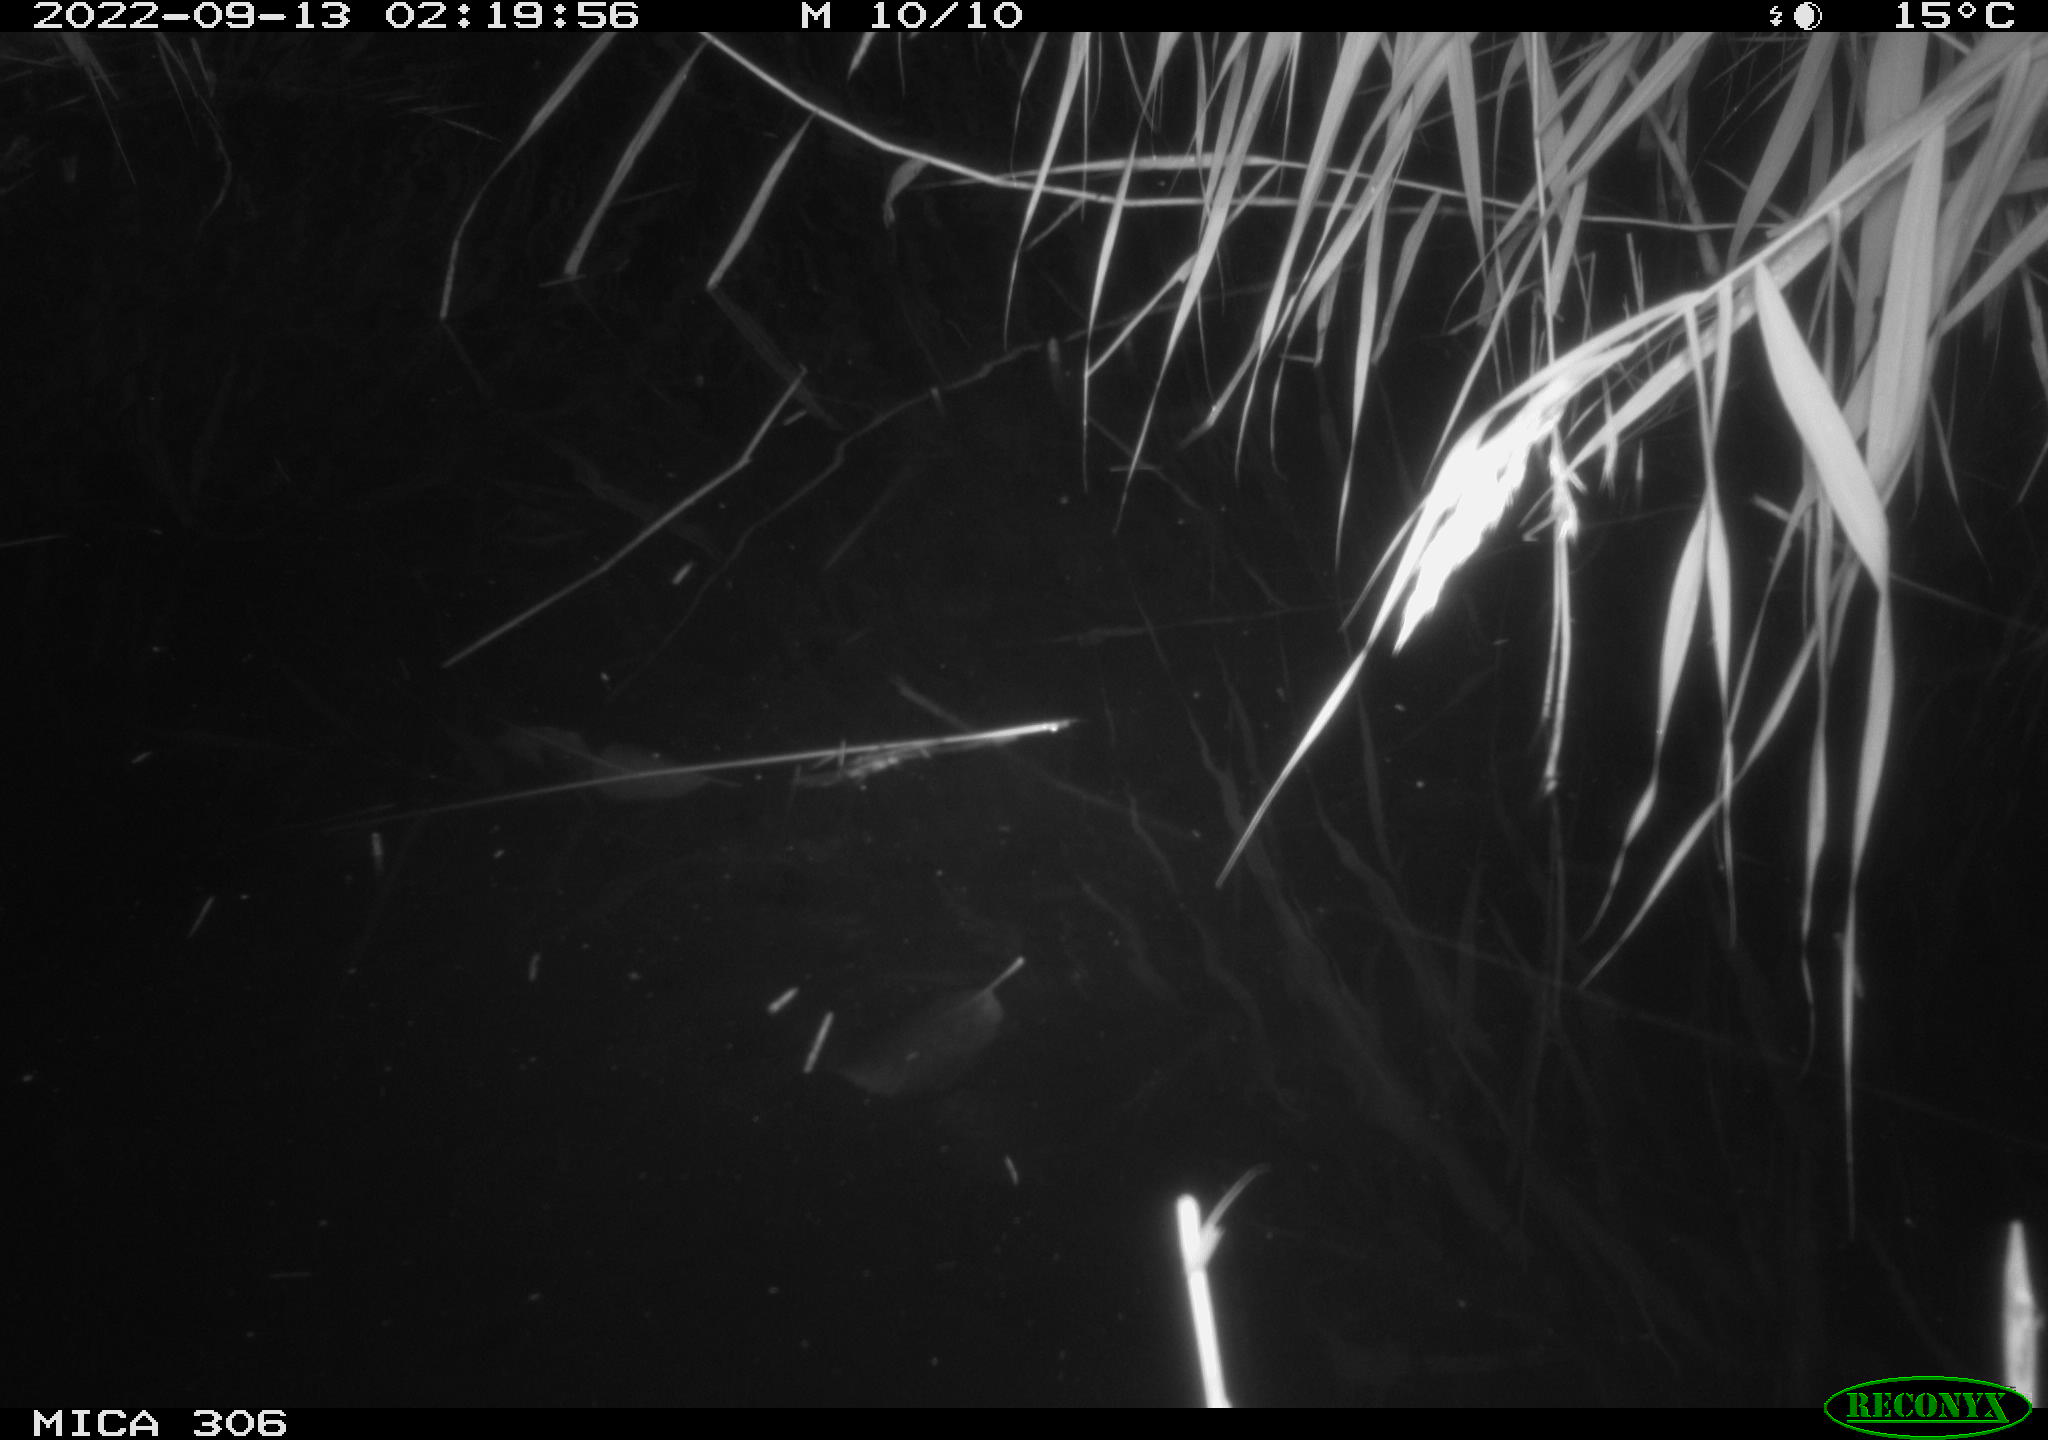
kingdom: Animalia
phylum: Chordata
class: Mammalia
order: Rodentia
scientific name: Rodentia
